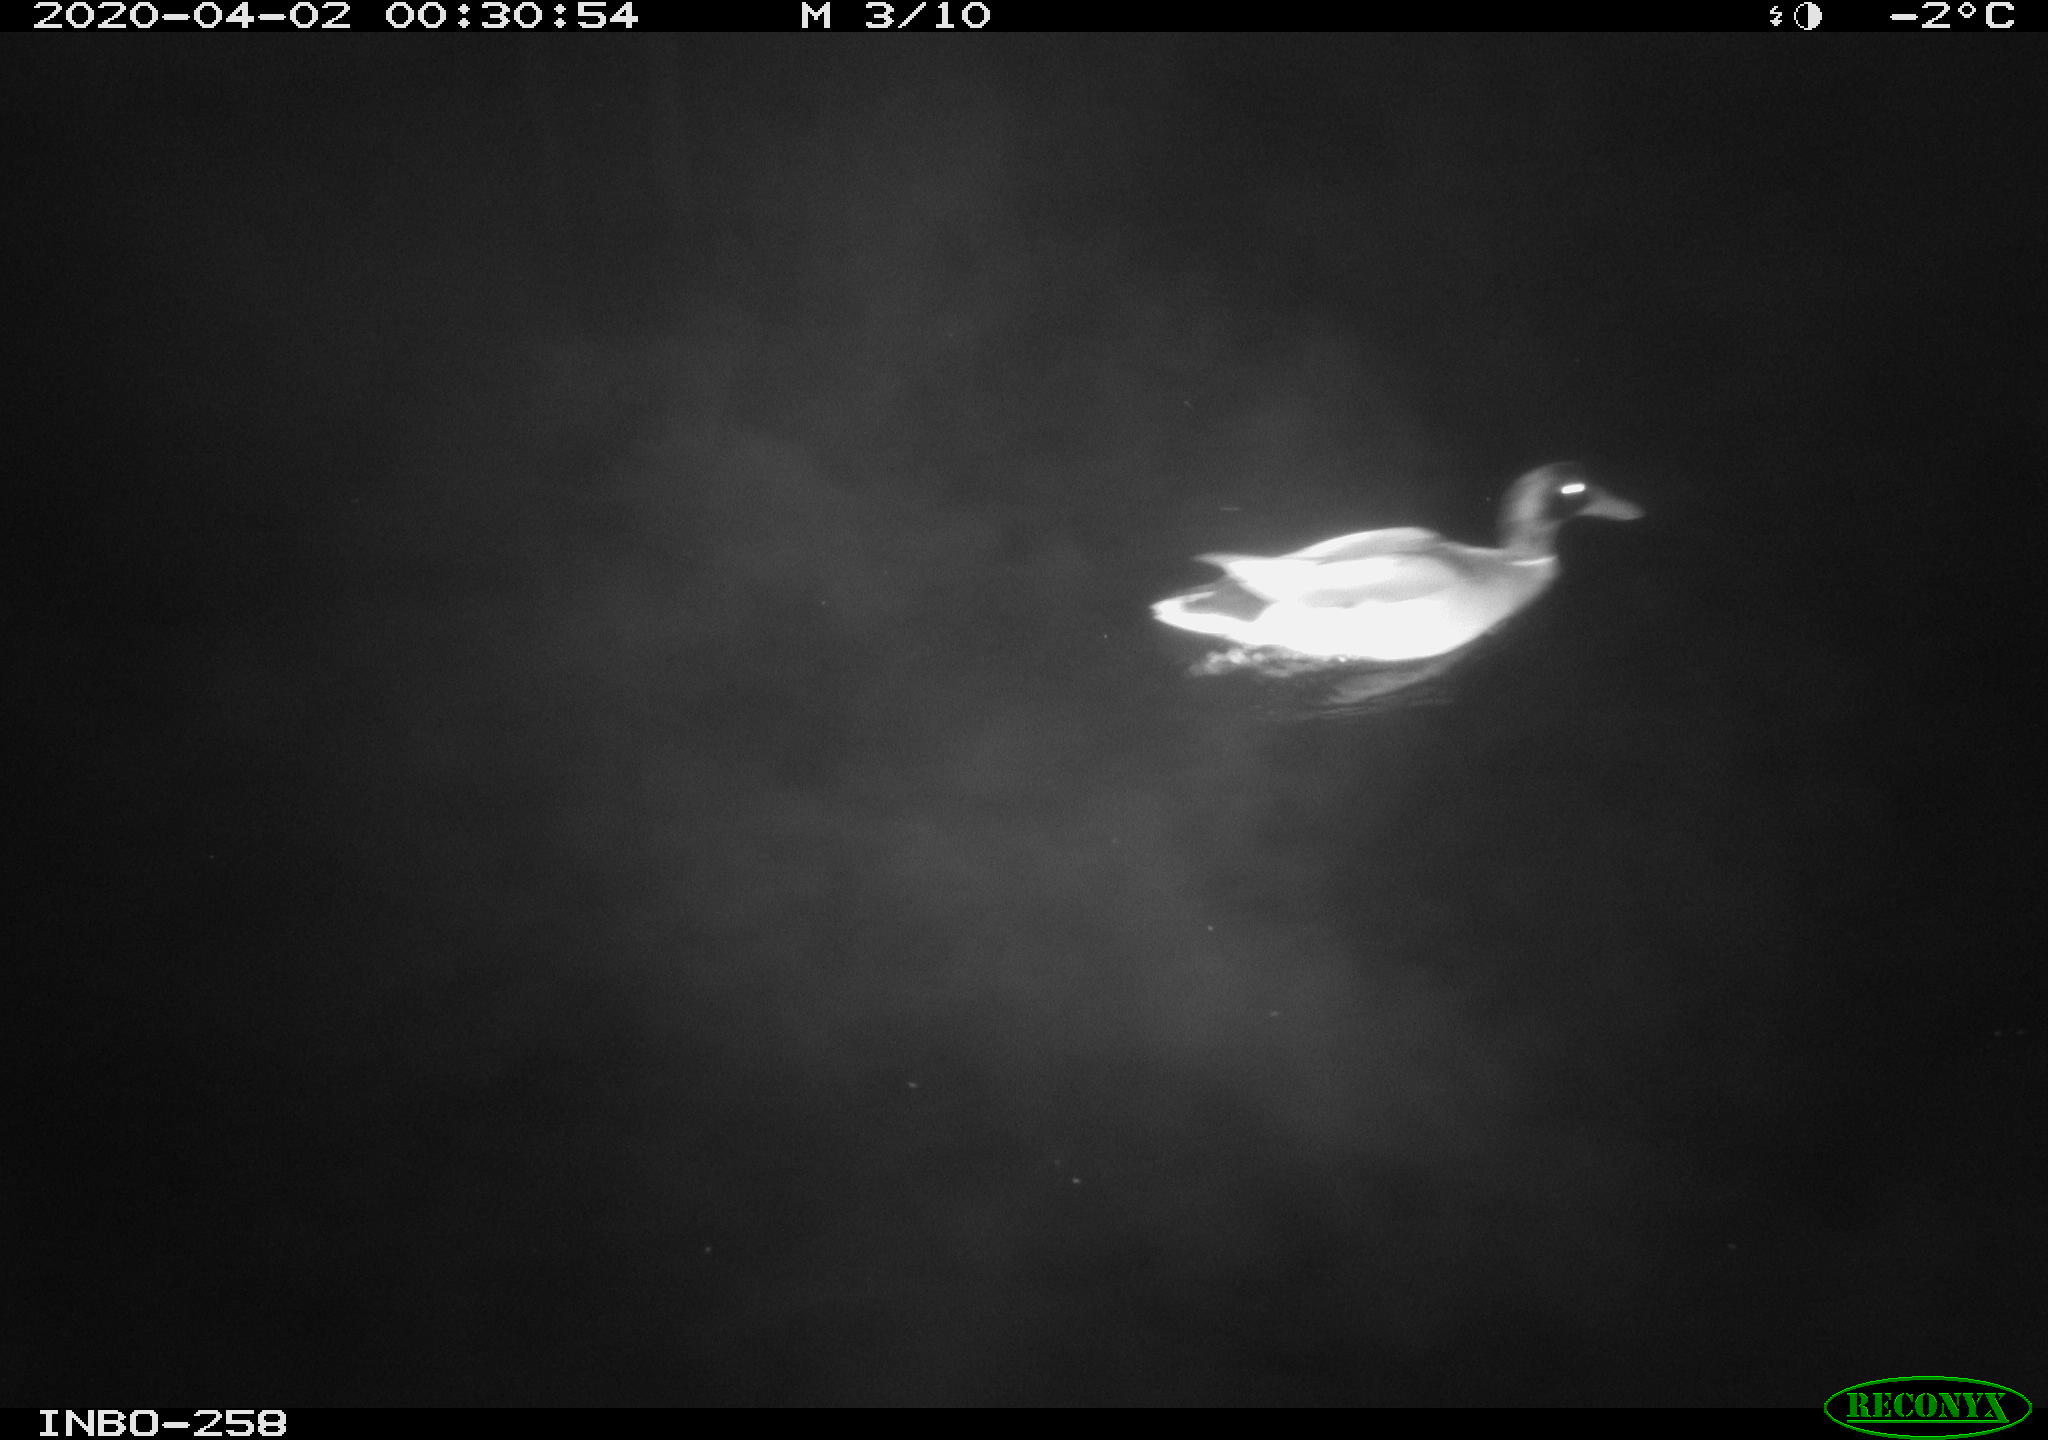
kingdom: Animalia
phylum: Chordata
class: Aves
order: Anseriformes
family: Anatidae
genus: Anas
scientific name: Anas platyrhynchos
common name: Mallard
